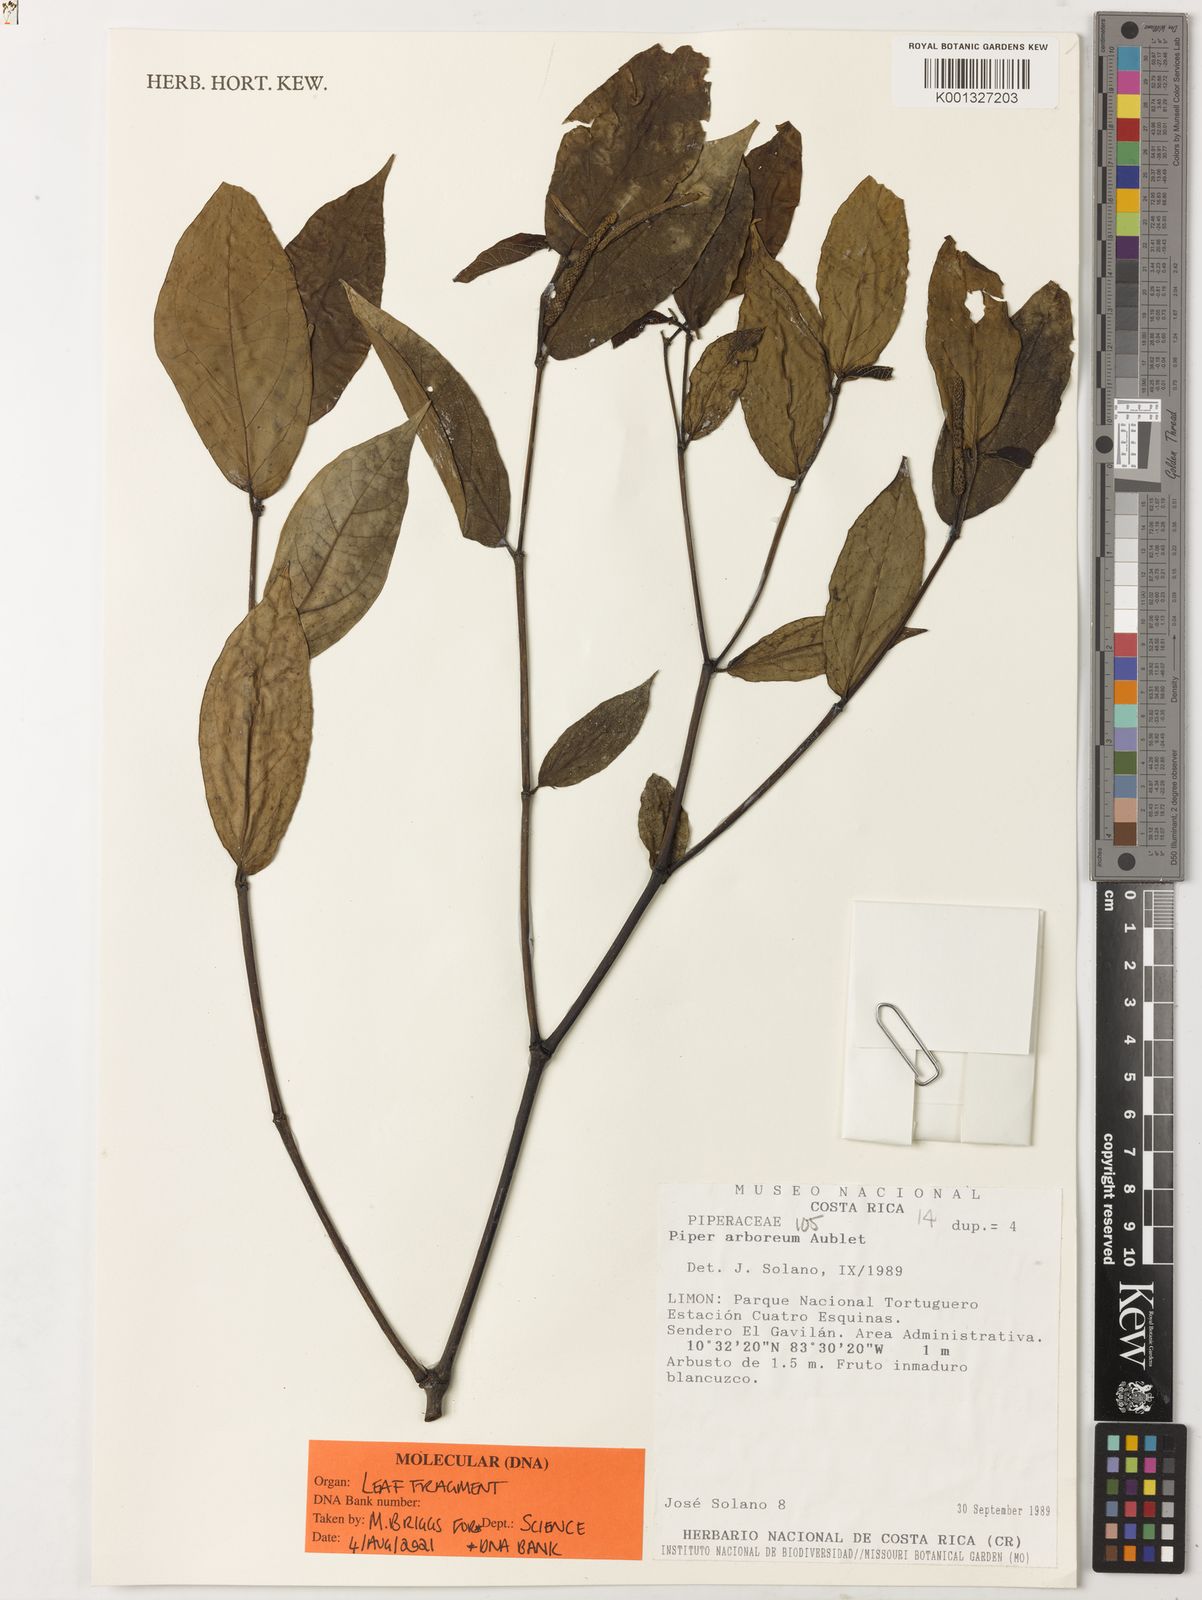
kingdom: Plantae
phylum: Tracheophyta
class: Magnoliopsida
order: Piperales
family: Piperaceae
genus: Piper
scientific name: Piper arboreum
